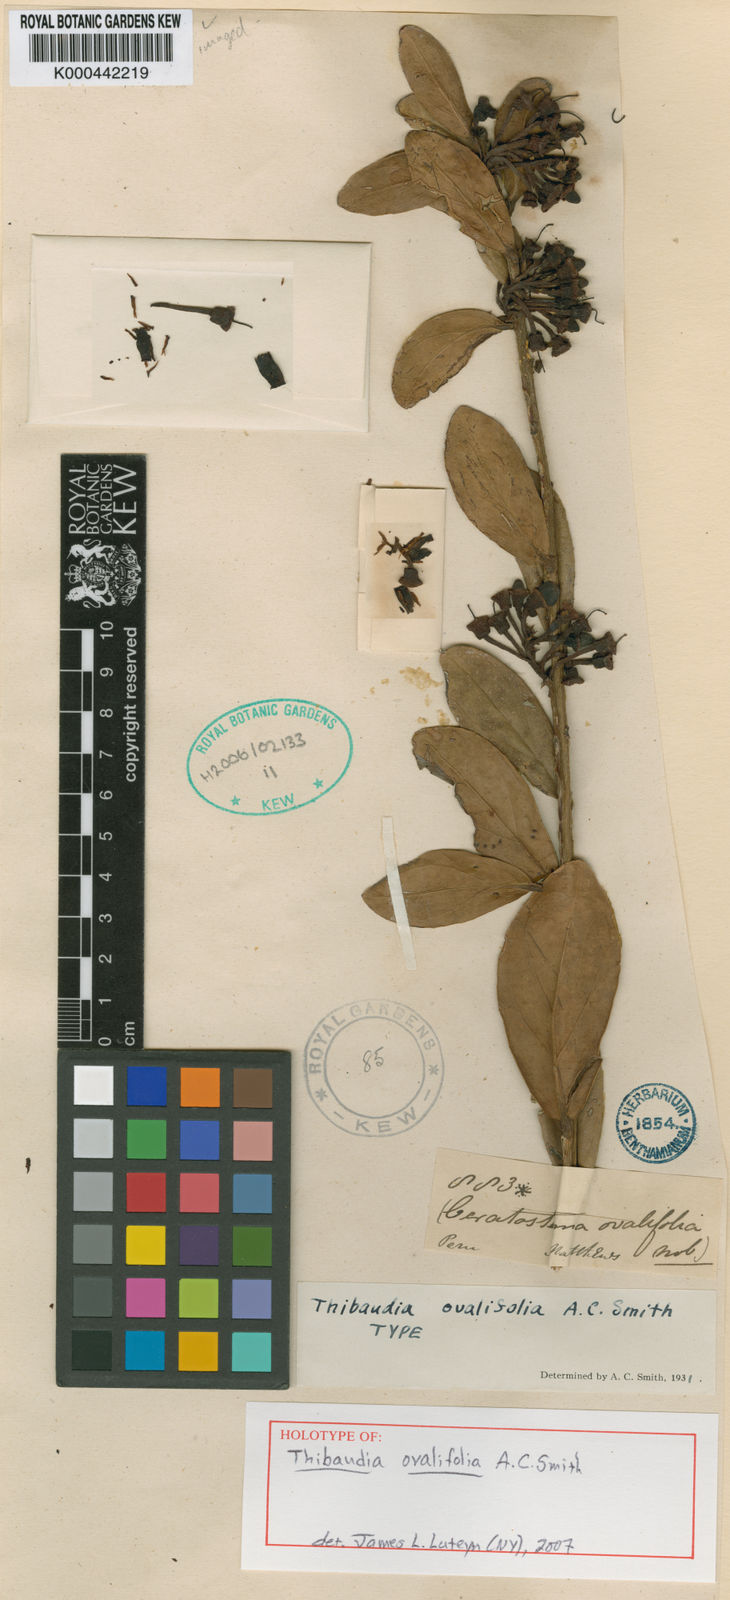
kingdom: Plantae
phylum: Tracheophyta
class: Magnoliopsida
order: Ericales
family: Ericaceae
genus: Thibaudia
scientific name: Thibaudia ovalifolia
